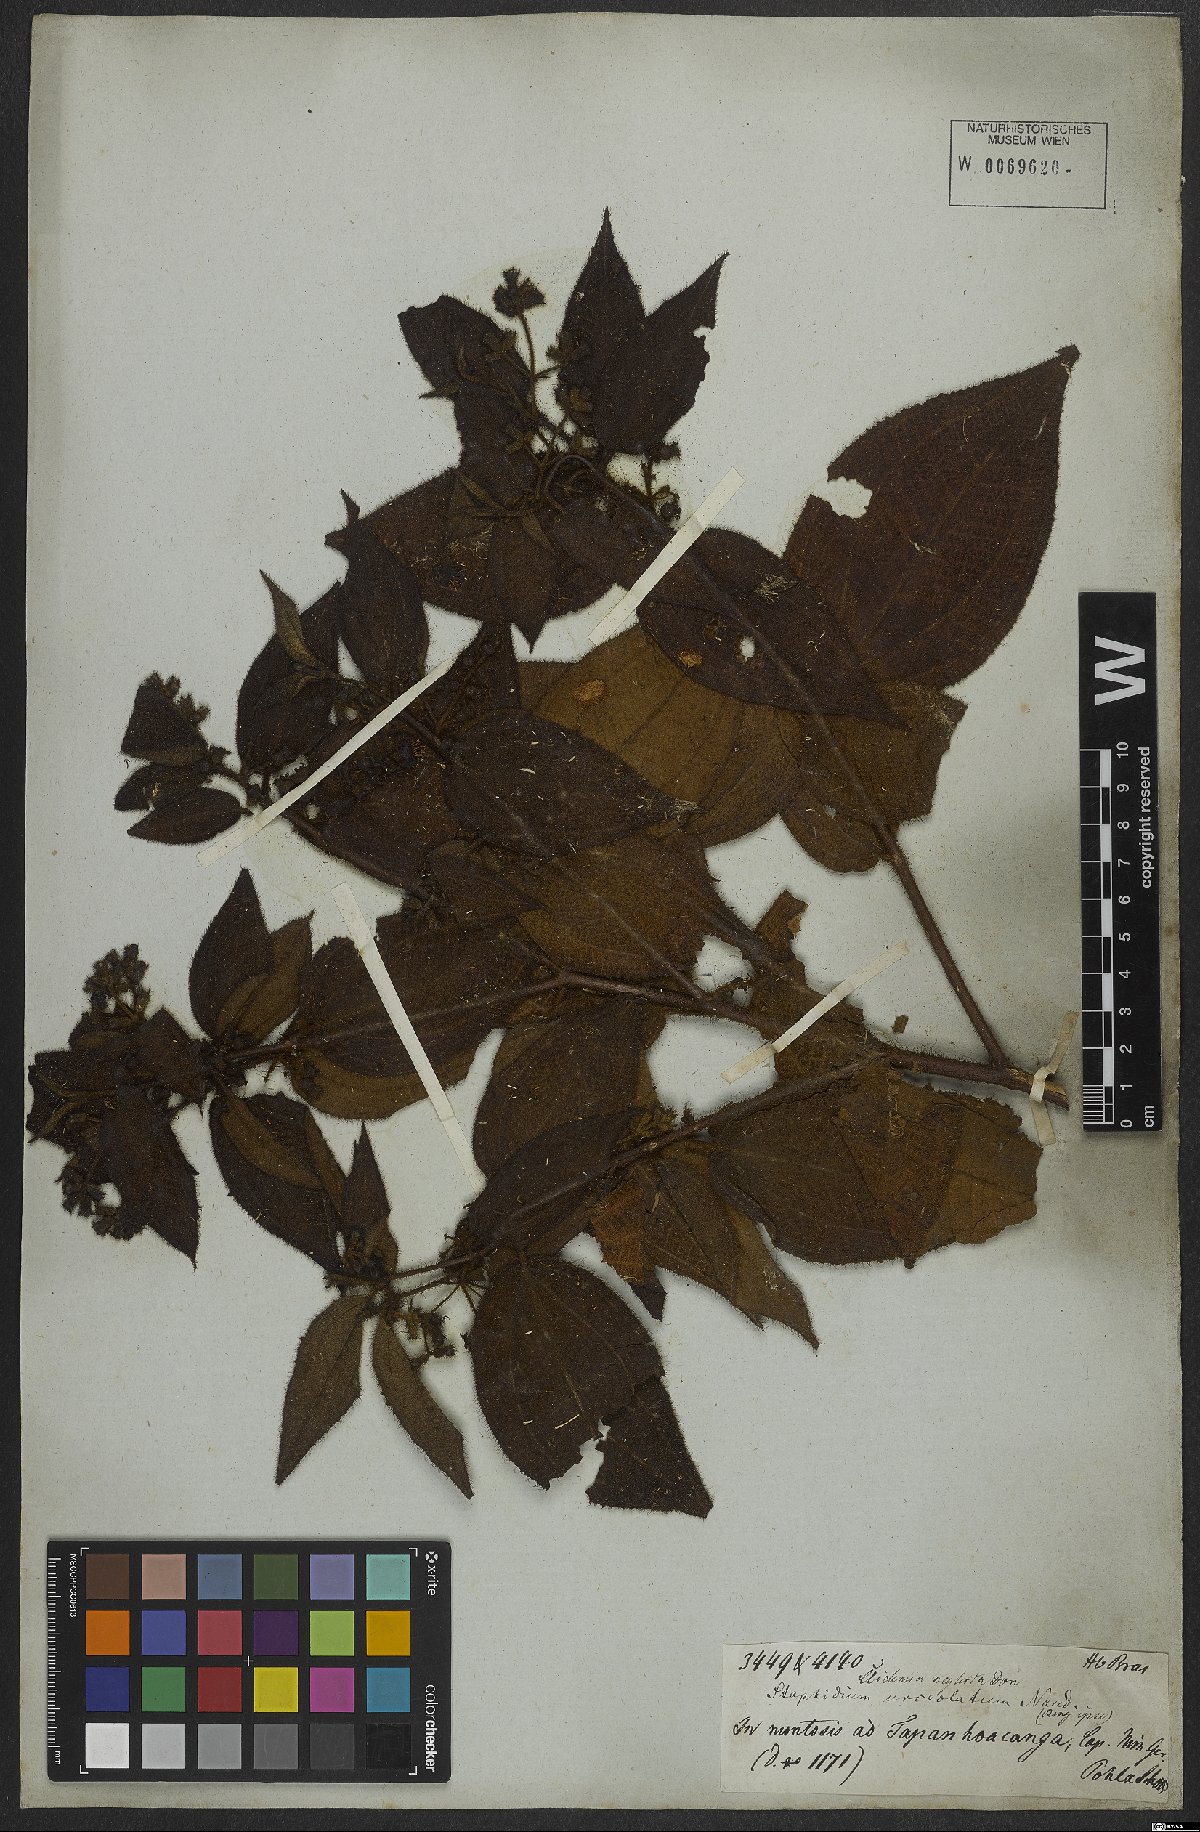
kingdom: Plantae
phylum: Tracheophyta
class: Magnoliopsida
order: Myrtales
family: Melastomataceae
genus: Miconia
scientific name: Miconia dependens
